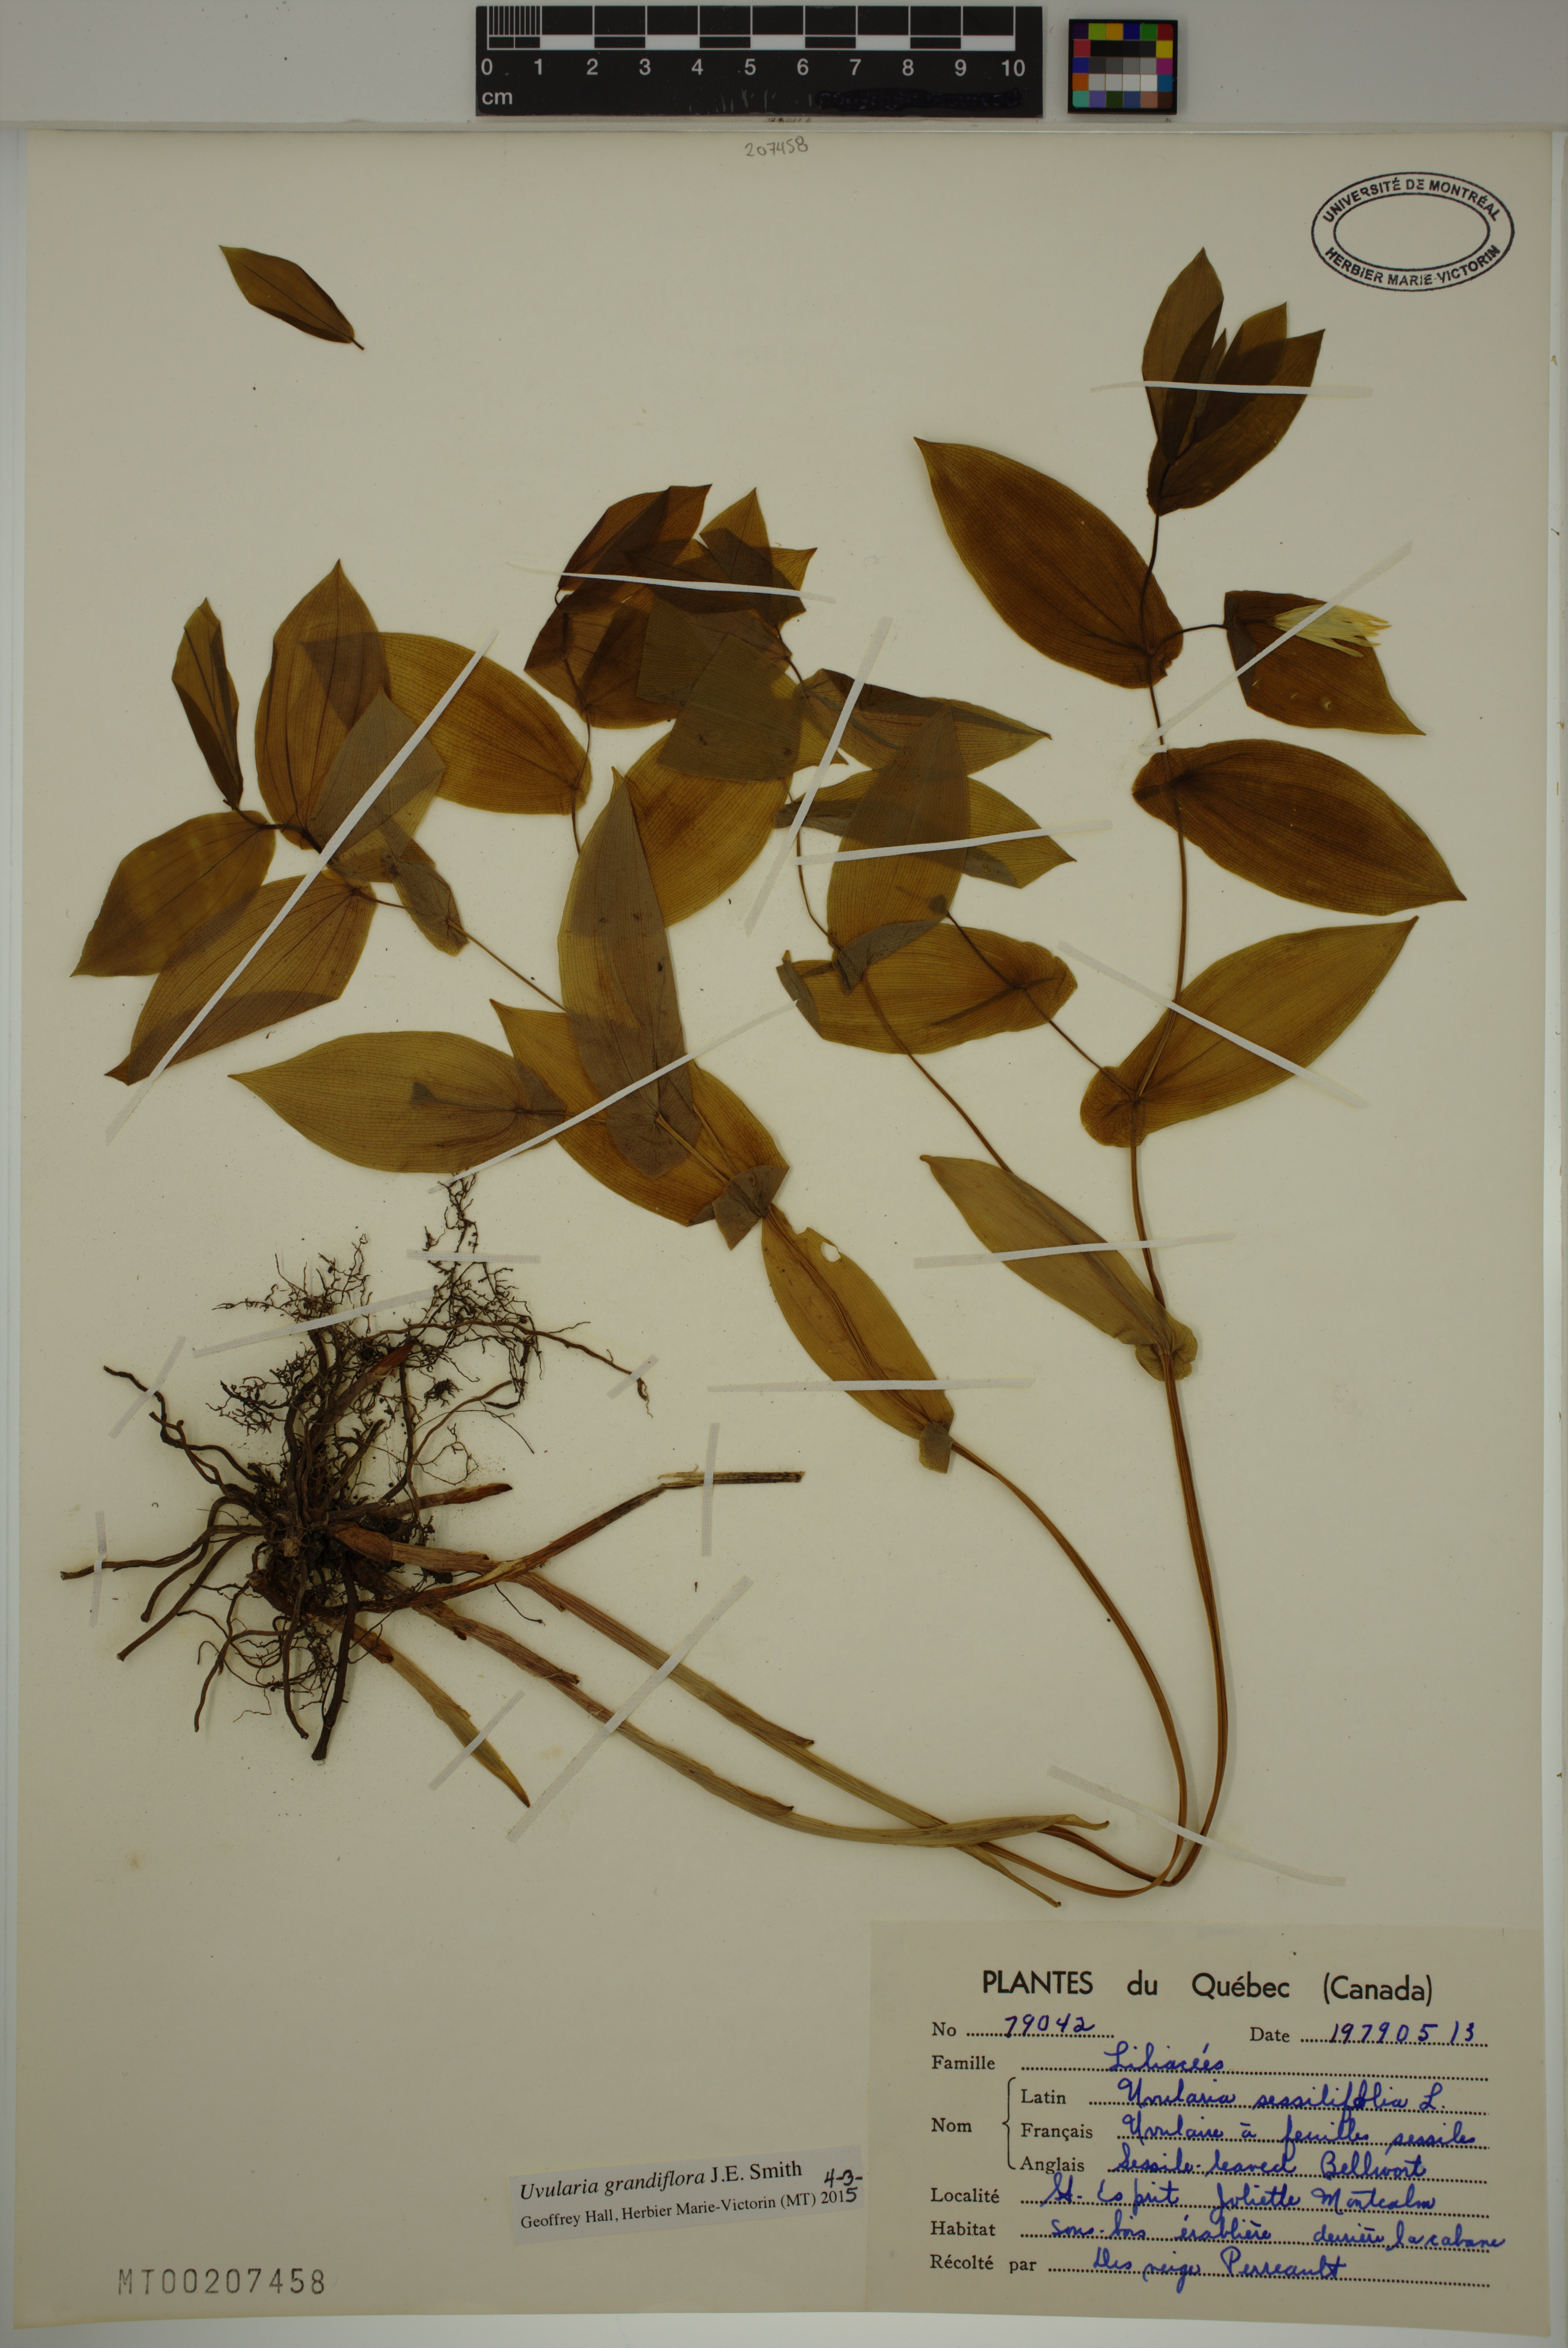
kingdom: Plantae
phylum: Tracheophyta
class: Liliopsida
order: Liliales
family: Colchicaceae
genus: Uvularia
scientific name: Uvularia grandiflora
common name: Bellwort
